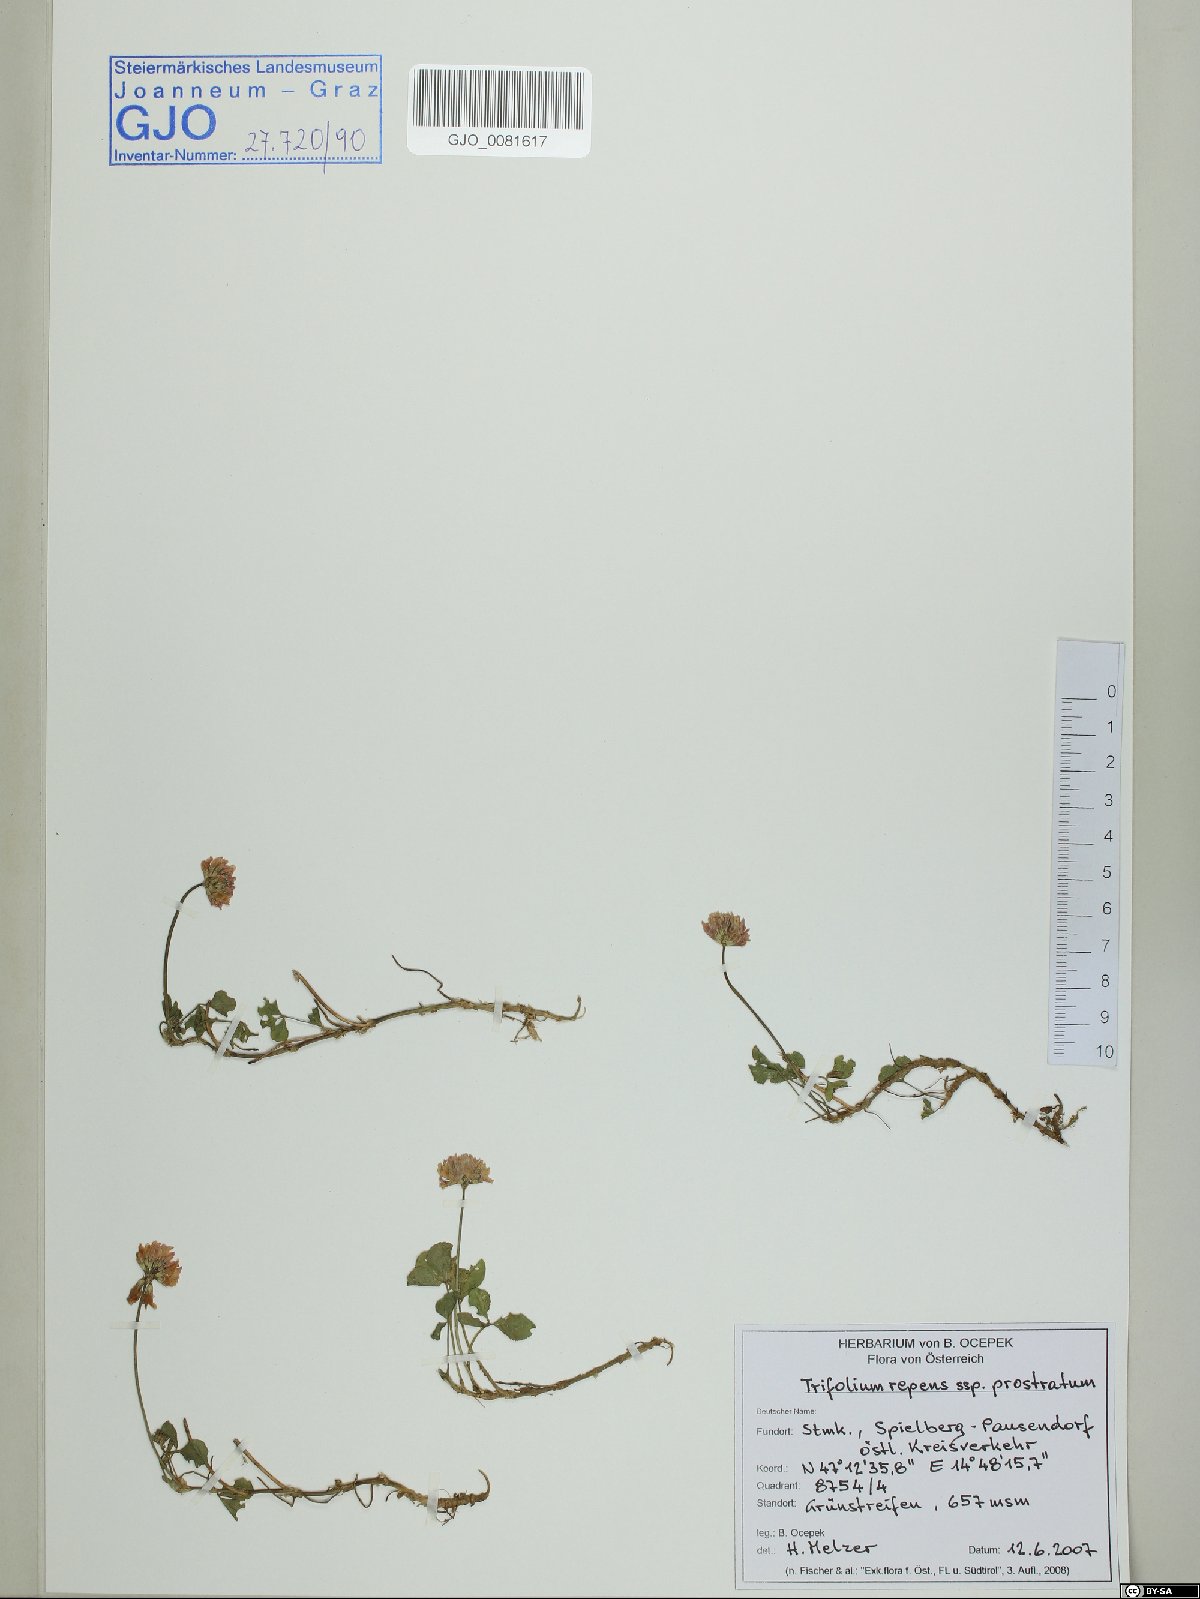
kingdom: Plantae
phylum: Tracheophyta
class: Magnoliopsida
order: Fabales
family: Fabaceae
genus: Trifolium
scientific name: Trifolium repens
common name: White clover
